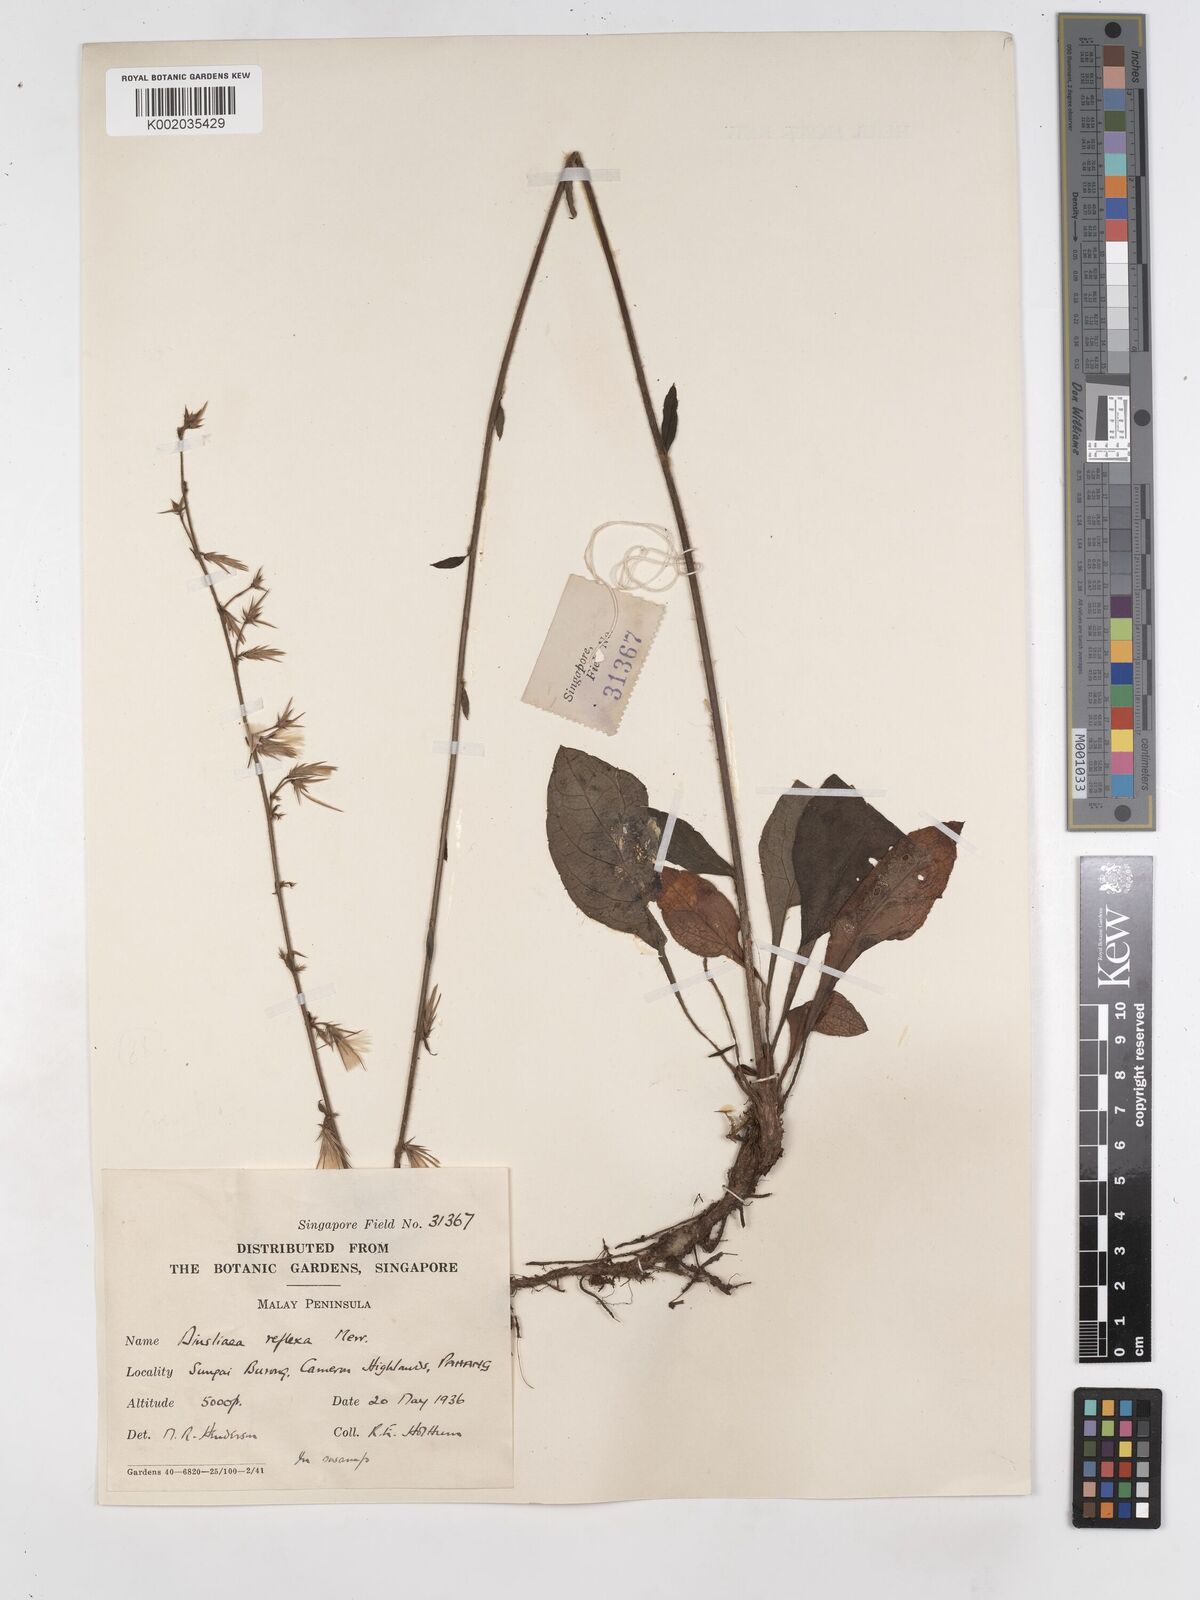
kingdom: Plantae
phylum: Tracheophyta
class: Magnoliopsida
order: Asterales
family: Asteraceae
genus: Ainsliaea
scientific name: Ainsliaea reflexa
